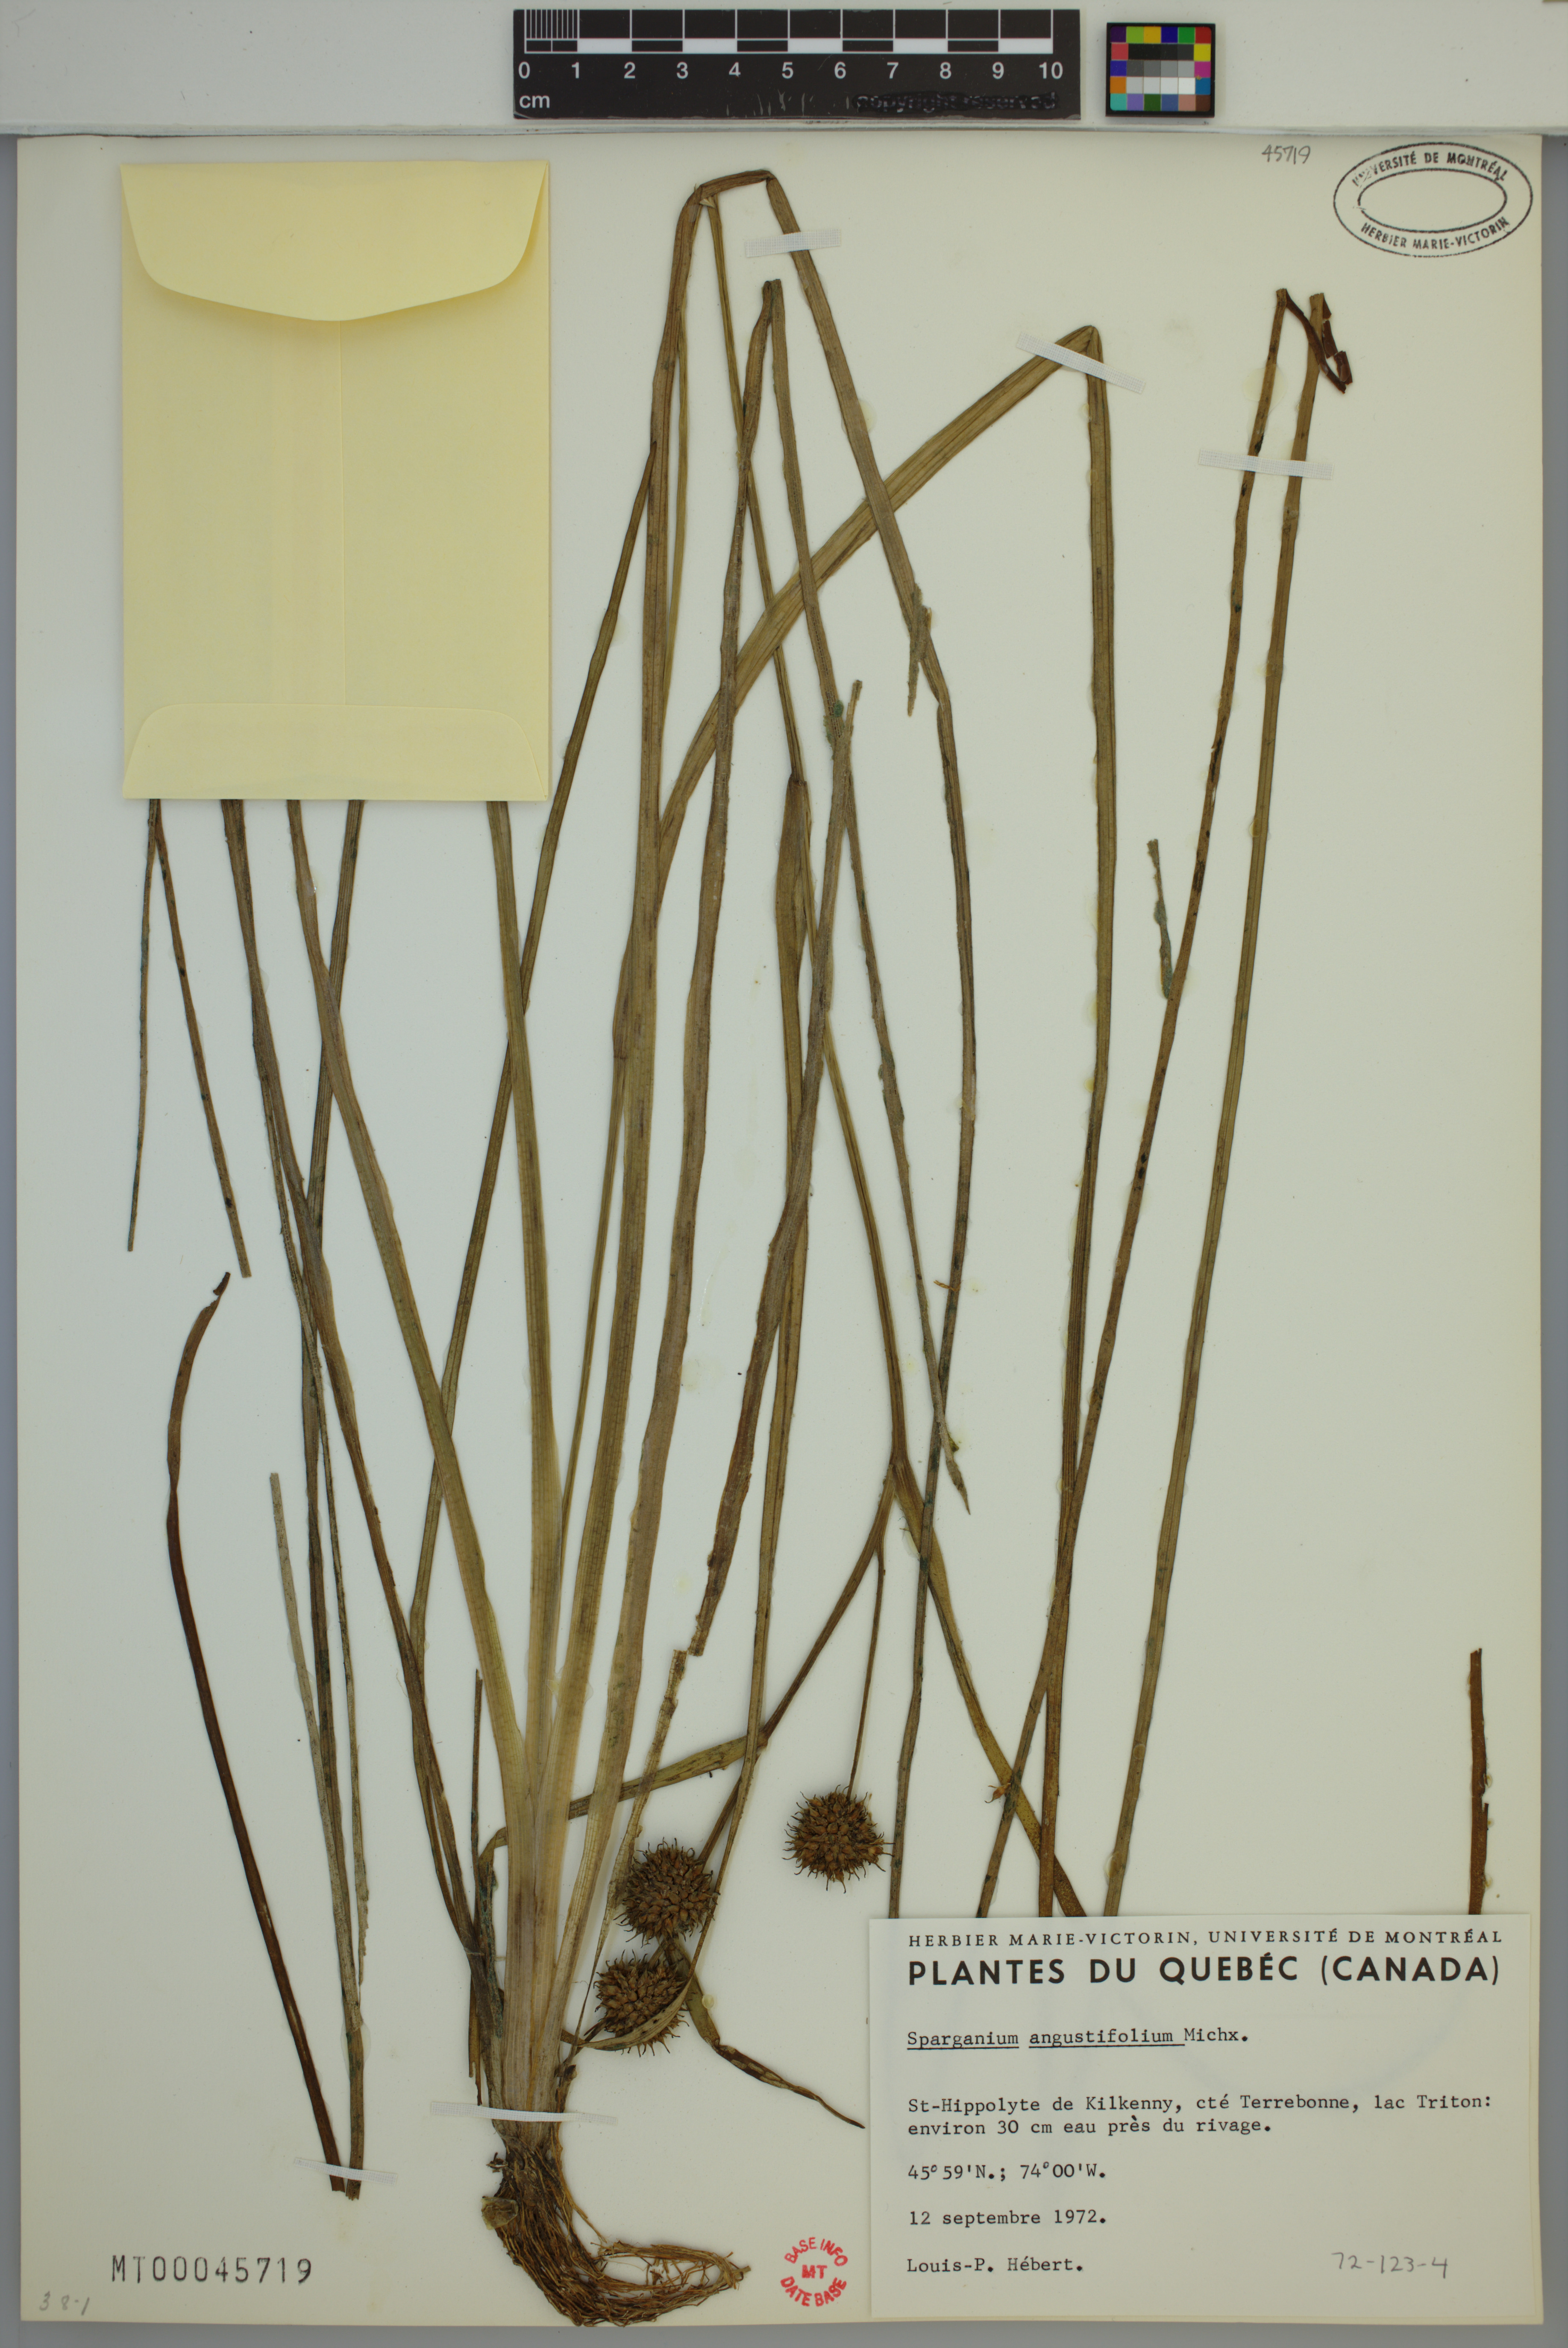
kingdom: Plantae
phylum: Tracheophyta
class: Liliopsida
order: Poales
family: Typhaceae
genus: Sparganium
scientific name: Sparganium angustifolium
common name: Floating bur-reed
